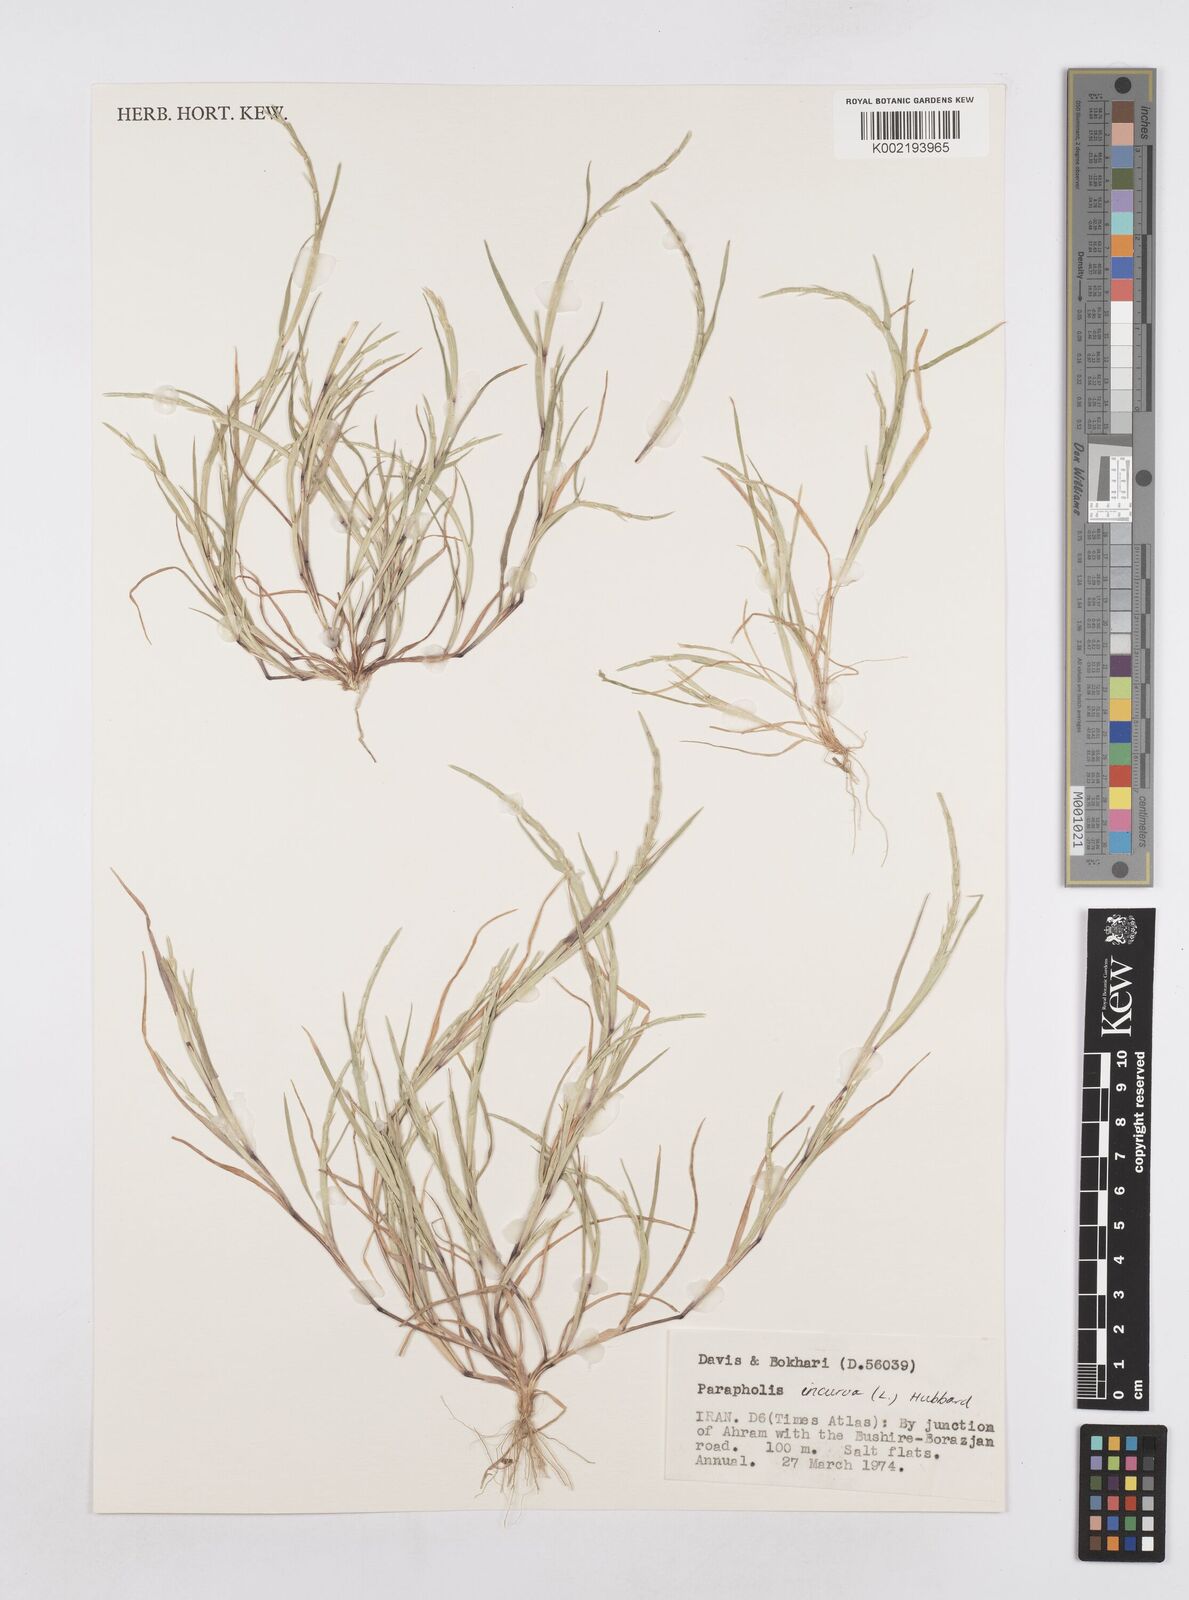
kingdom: Plantae
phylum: Tracheophyta
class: Liliopsida
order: Poales
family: Poaceae
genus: Parapholis
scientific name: Parapholis incurva
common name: Curved sicklegrass
